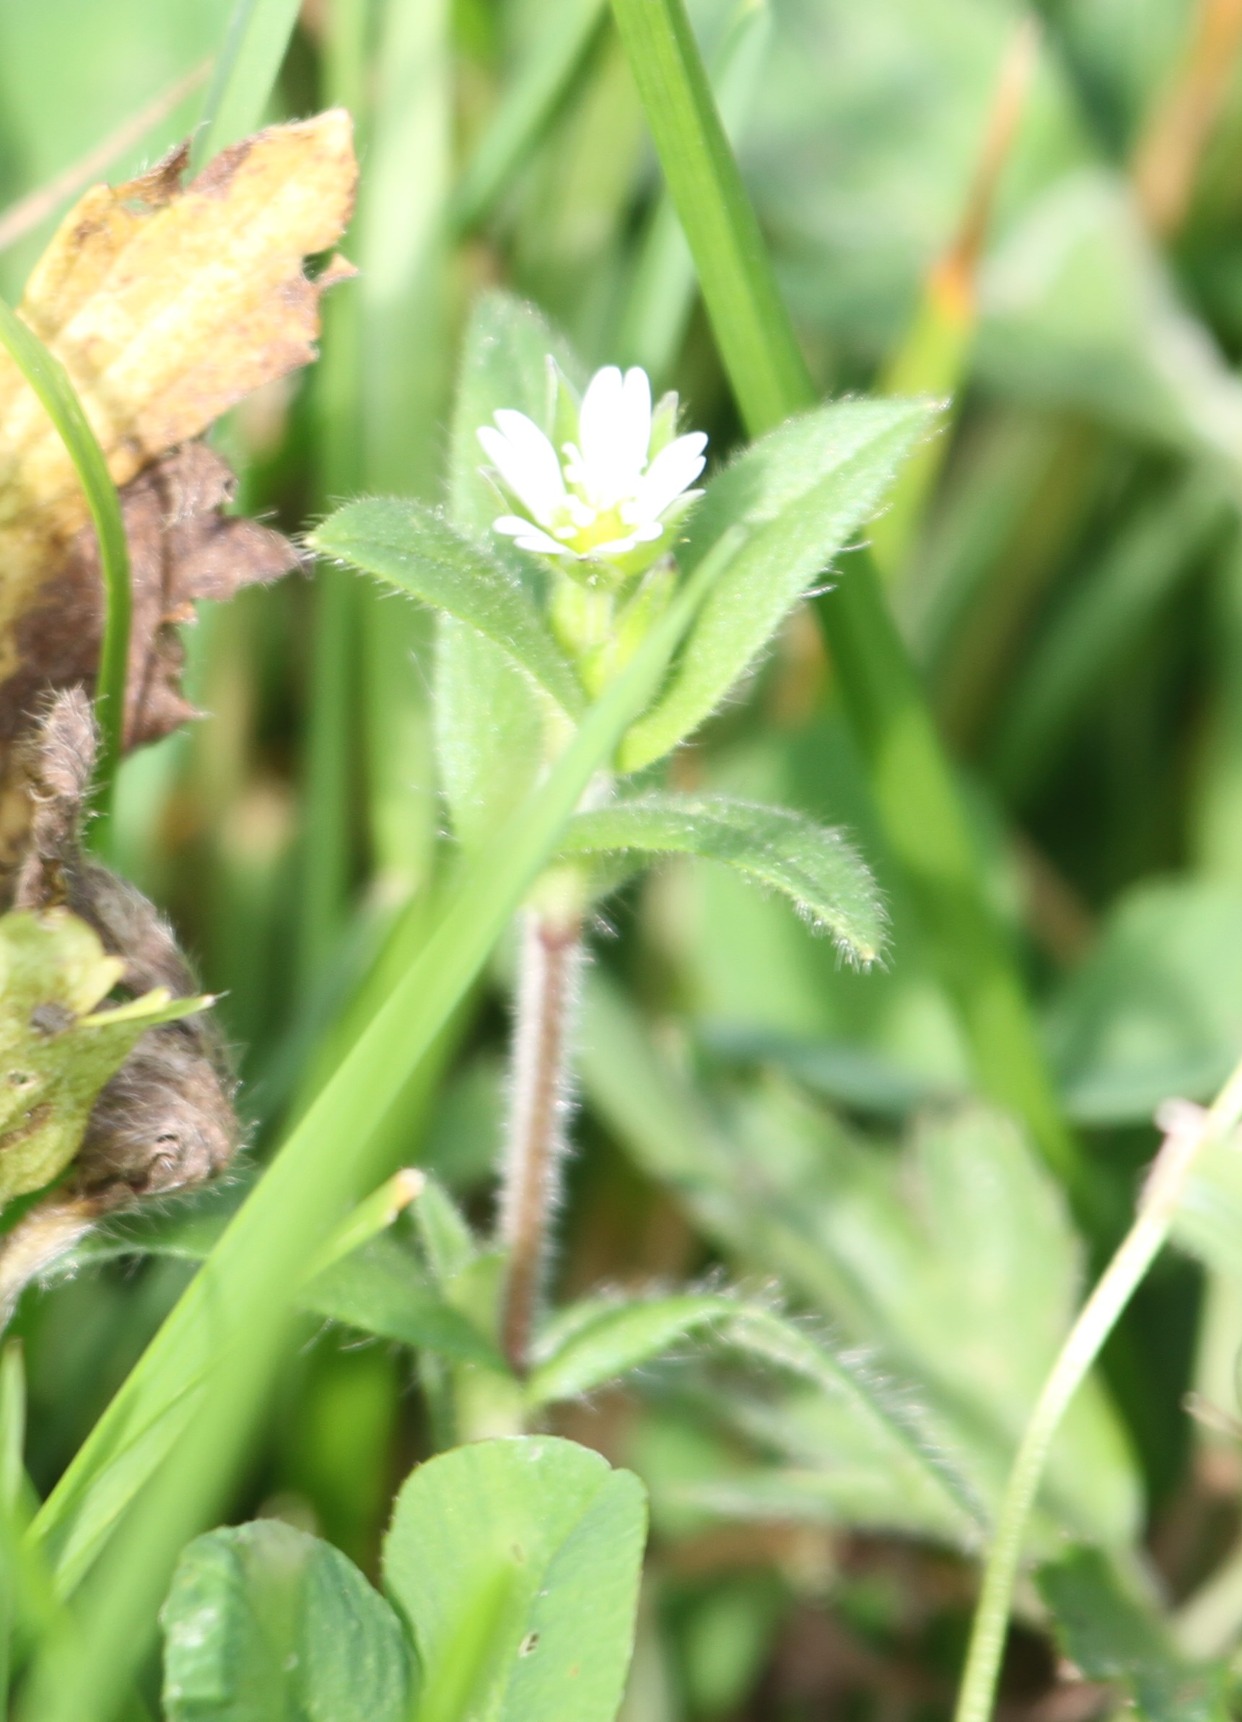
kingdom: Plantae
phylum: Tracheophyta
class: Magnoliopsida
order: Caryophyllales
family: Caryophyllaceae
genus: Cerastium
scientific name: Cerastium fontanum
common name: Almindelig hønsetarm
